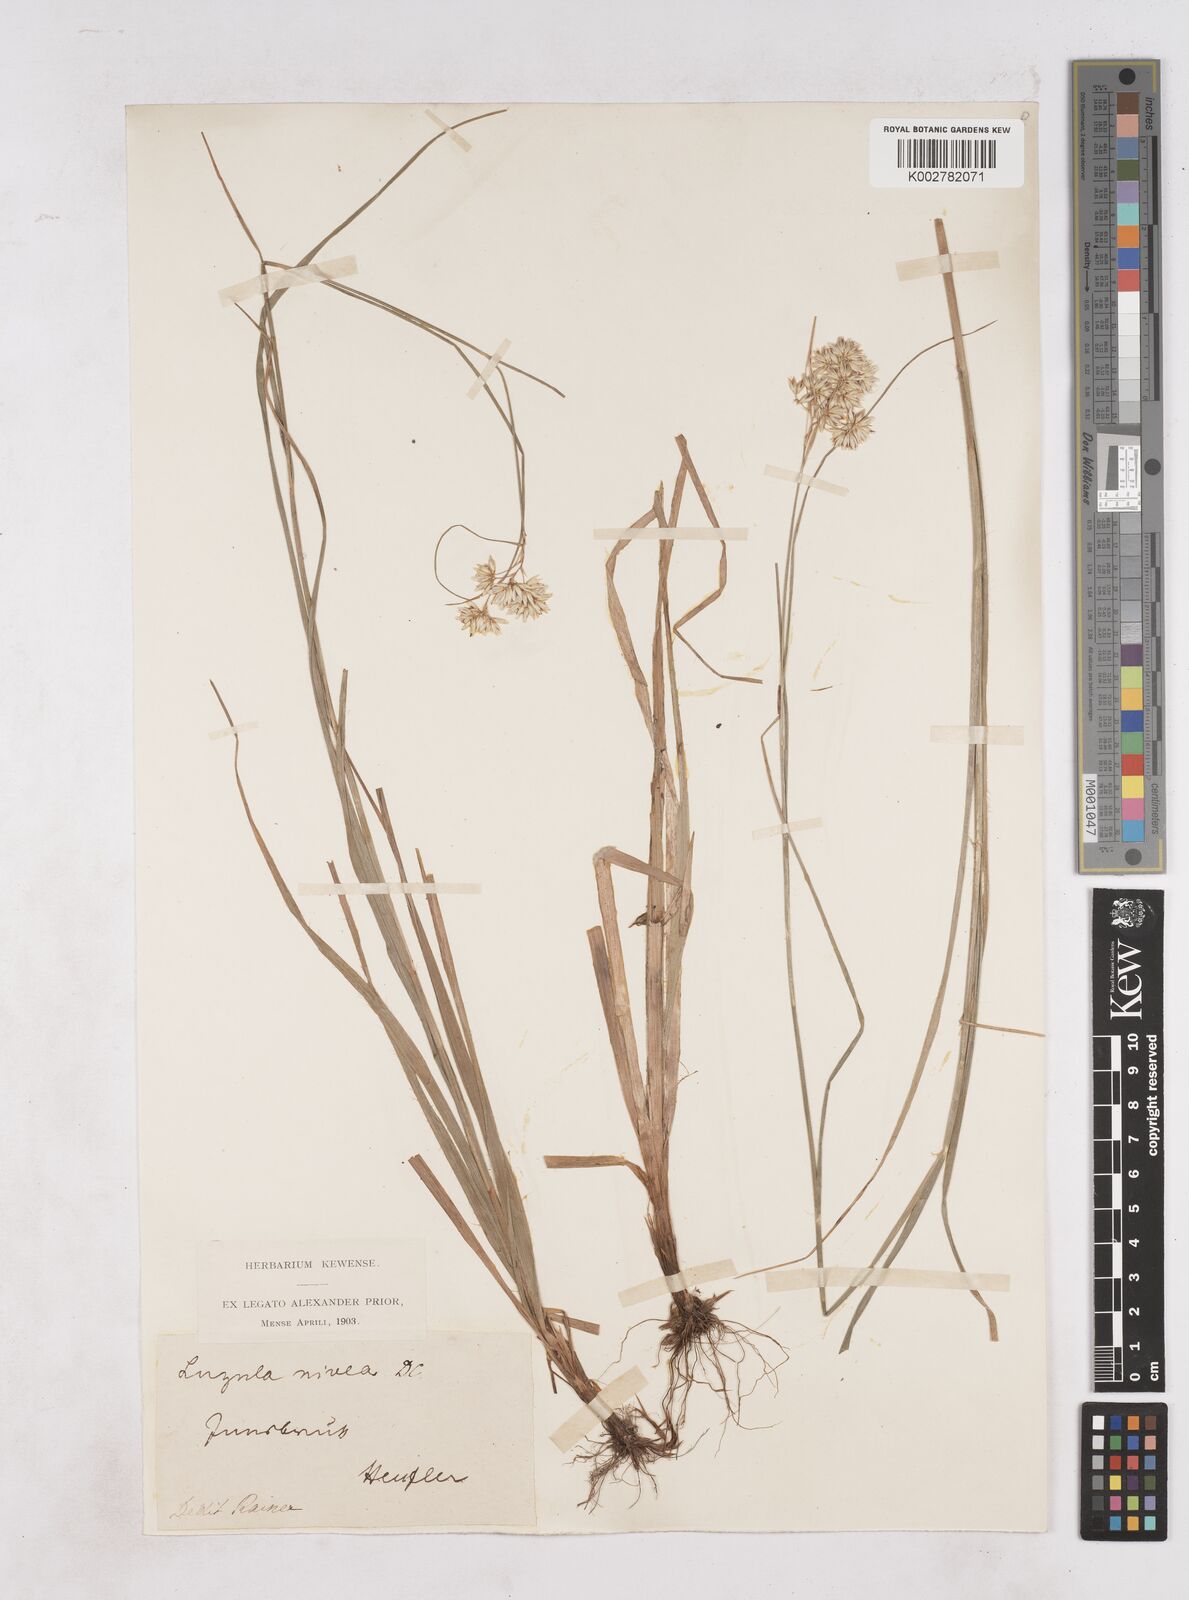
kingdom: Plantae
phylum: Tracheophyta
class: Liliopsida
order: Poales
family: Juncaceae
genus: Luzula
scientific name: Luzula nivea
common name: Snow-white wood-rush
